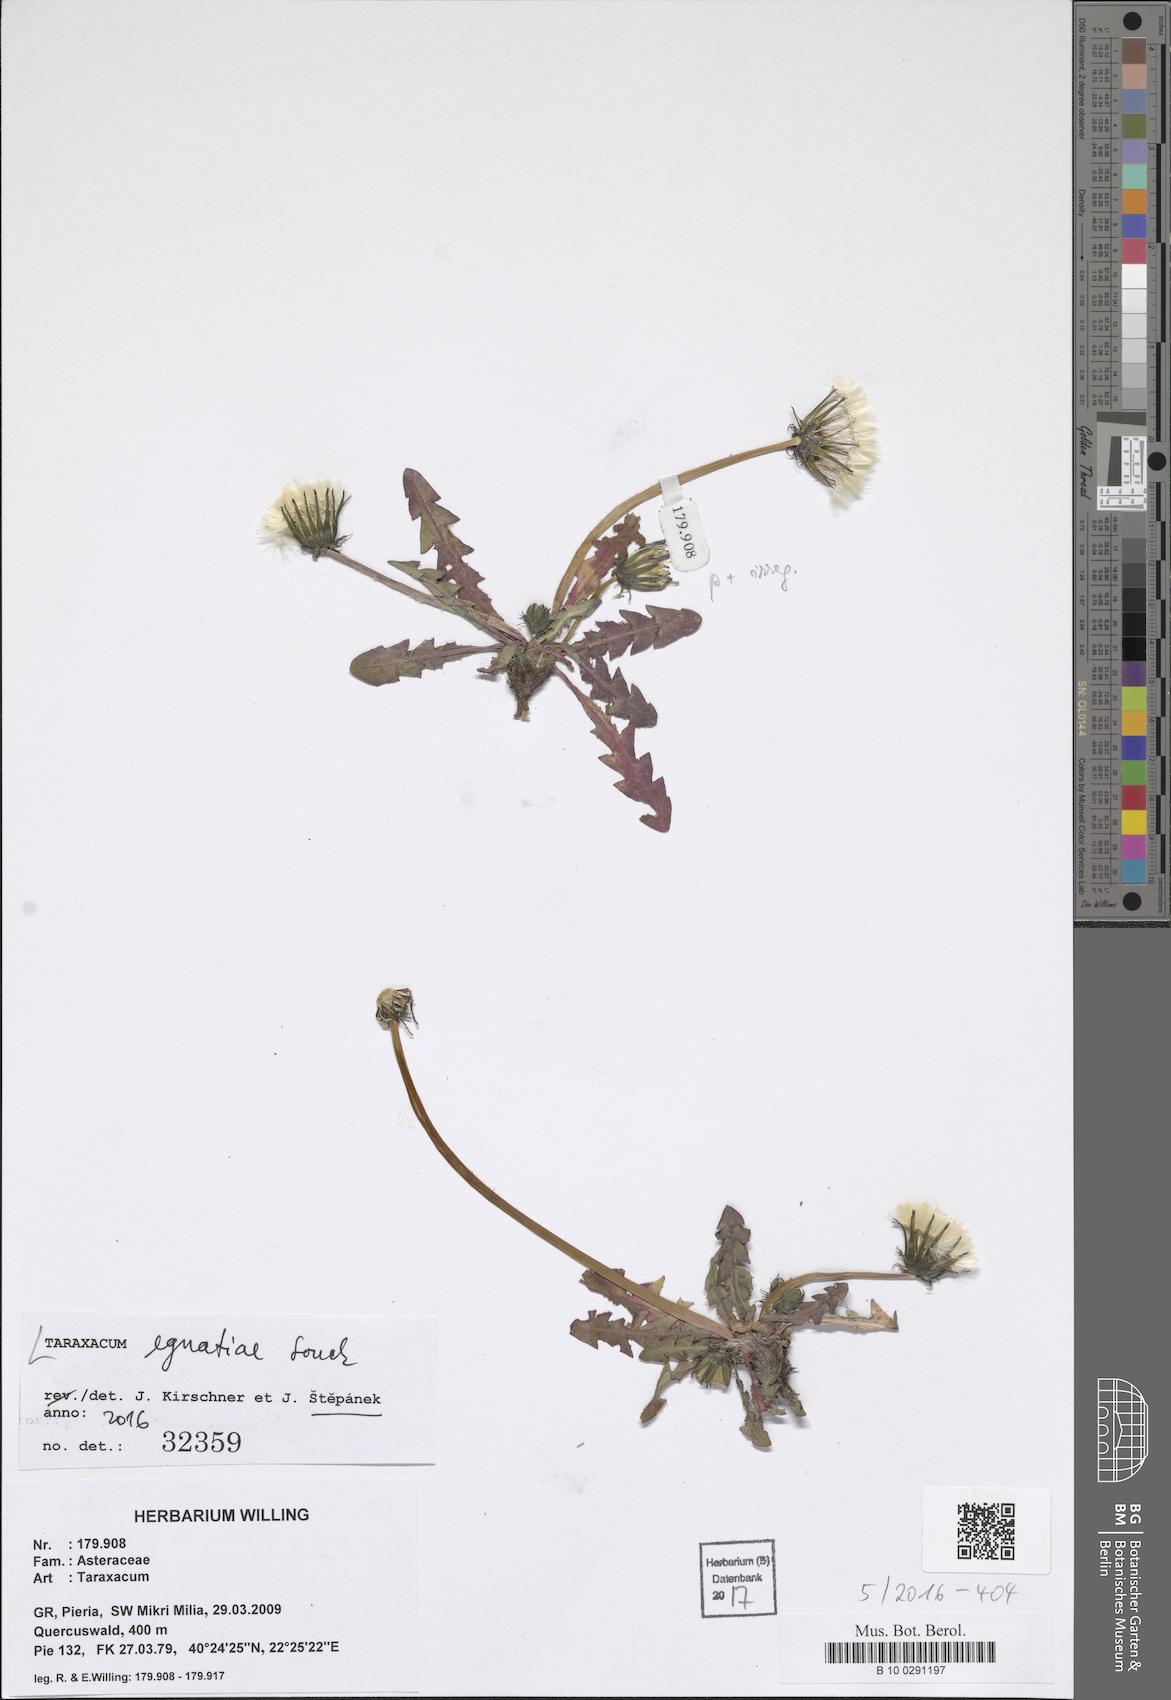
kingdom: Plantae
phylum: Tracheophyta
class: Magnoliopsida
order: Asterales
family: Asteraceae
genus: Taraxacum
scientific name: Taraxacum egnatiae
